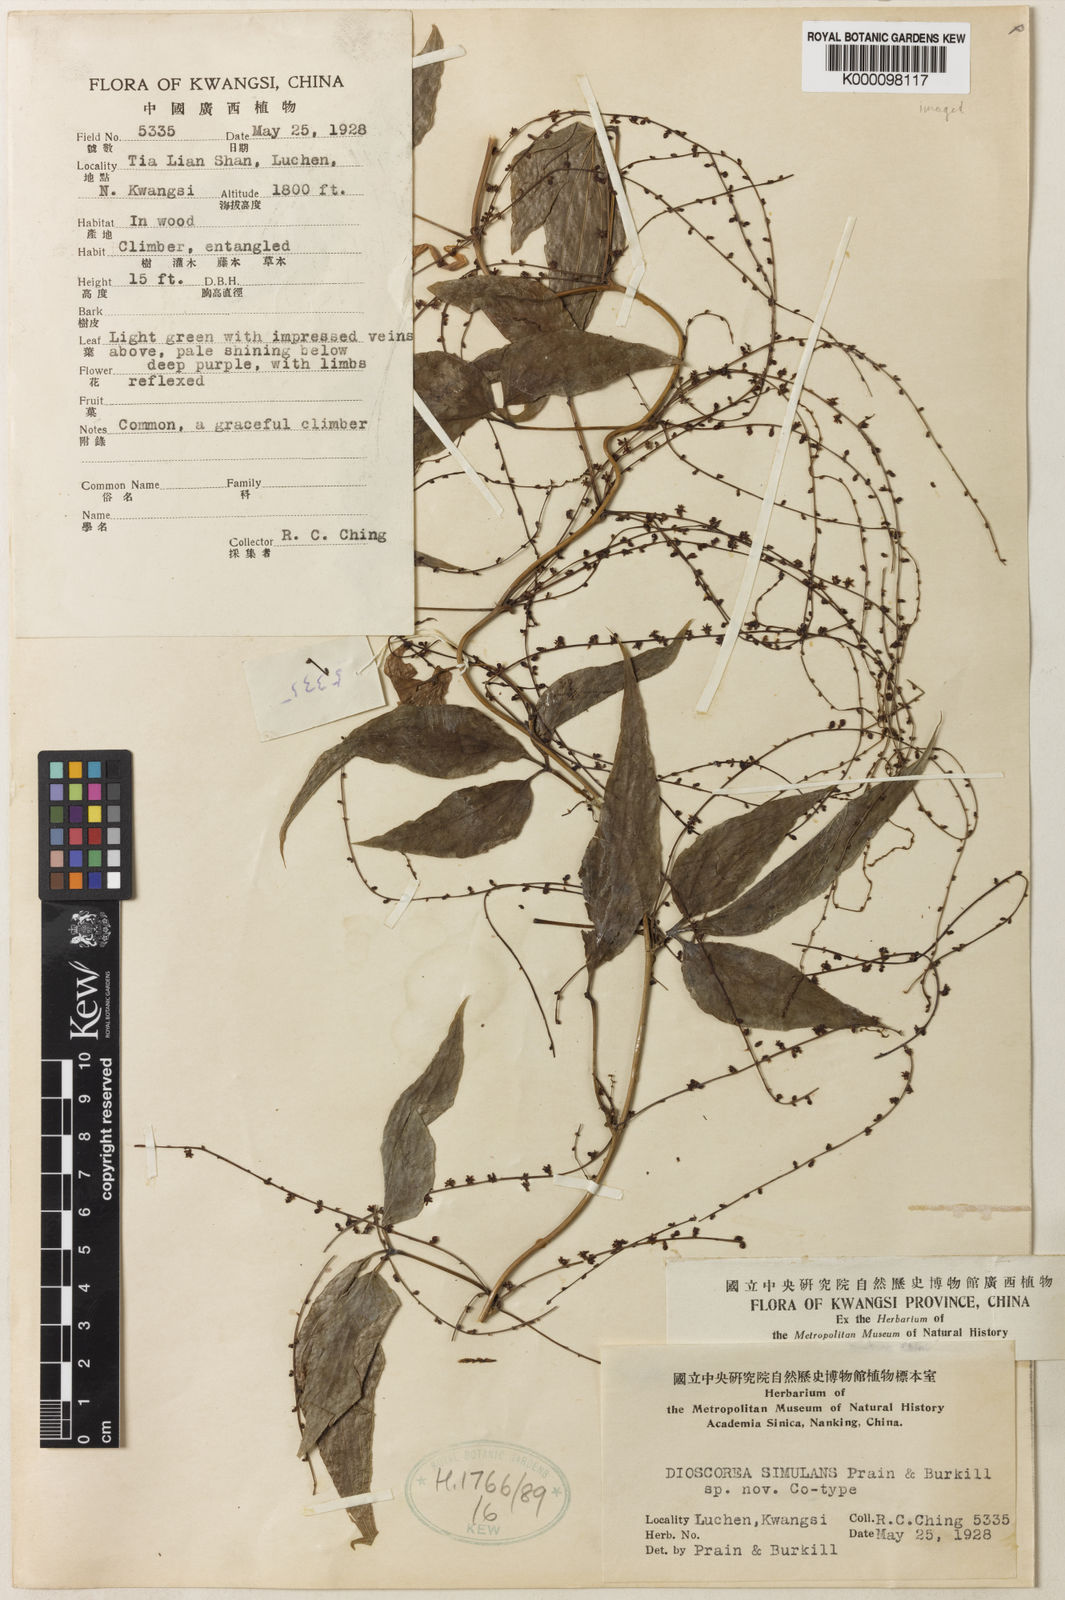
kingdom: Plantae
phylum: Tracheophyta
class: Liliopsida
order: Dioscoreales
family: Dioscoreaceae
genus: Dioscorea
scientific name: Dioscorea simulans
